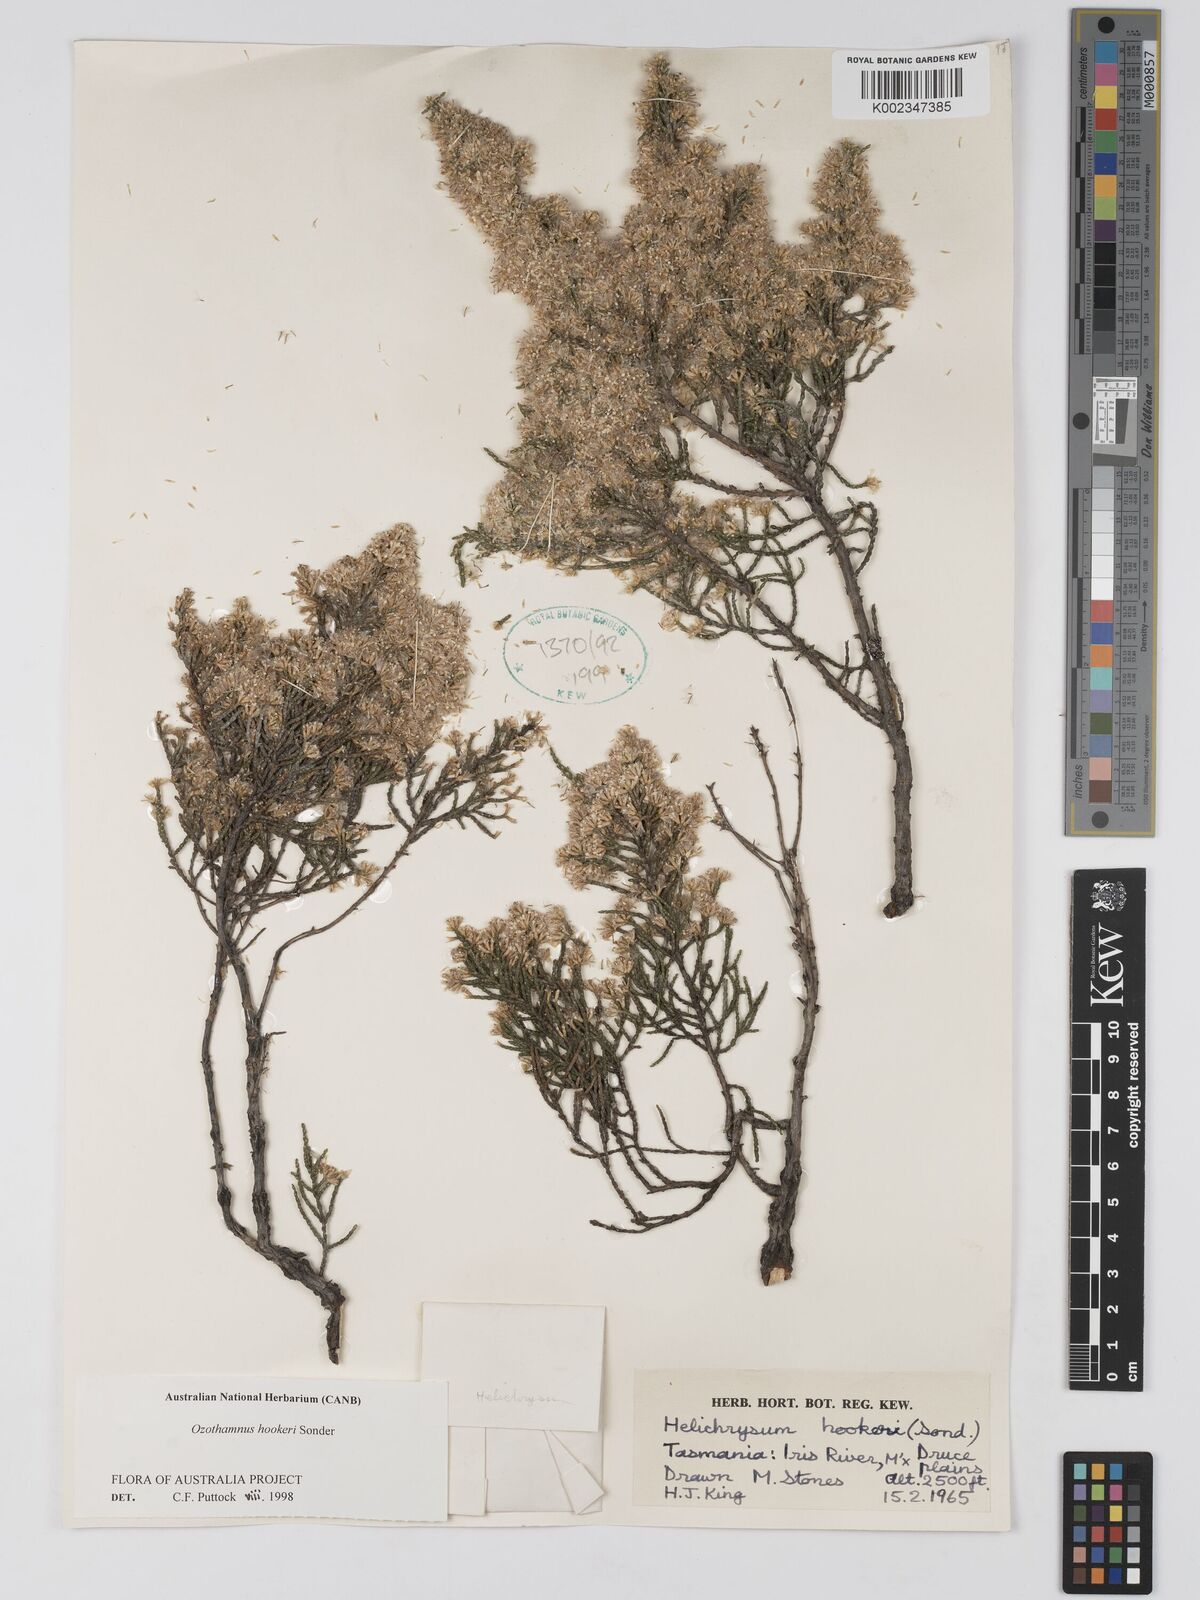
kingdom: Plantae
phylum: Tracheophyta
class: Magnoliopsida
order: Asterales
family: Asteraceae
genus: Ozothamnus
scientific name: Ozothamnus hookeri
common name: Kerosene-bush
